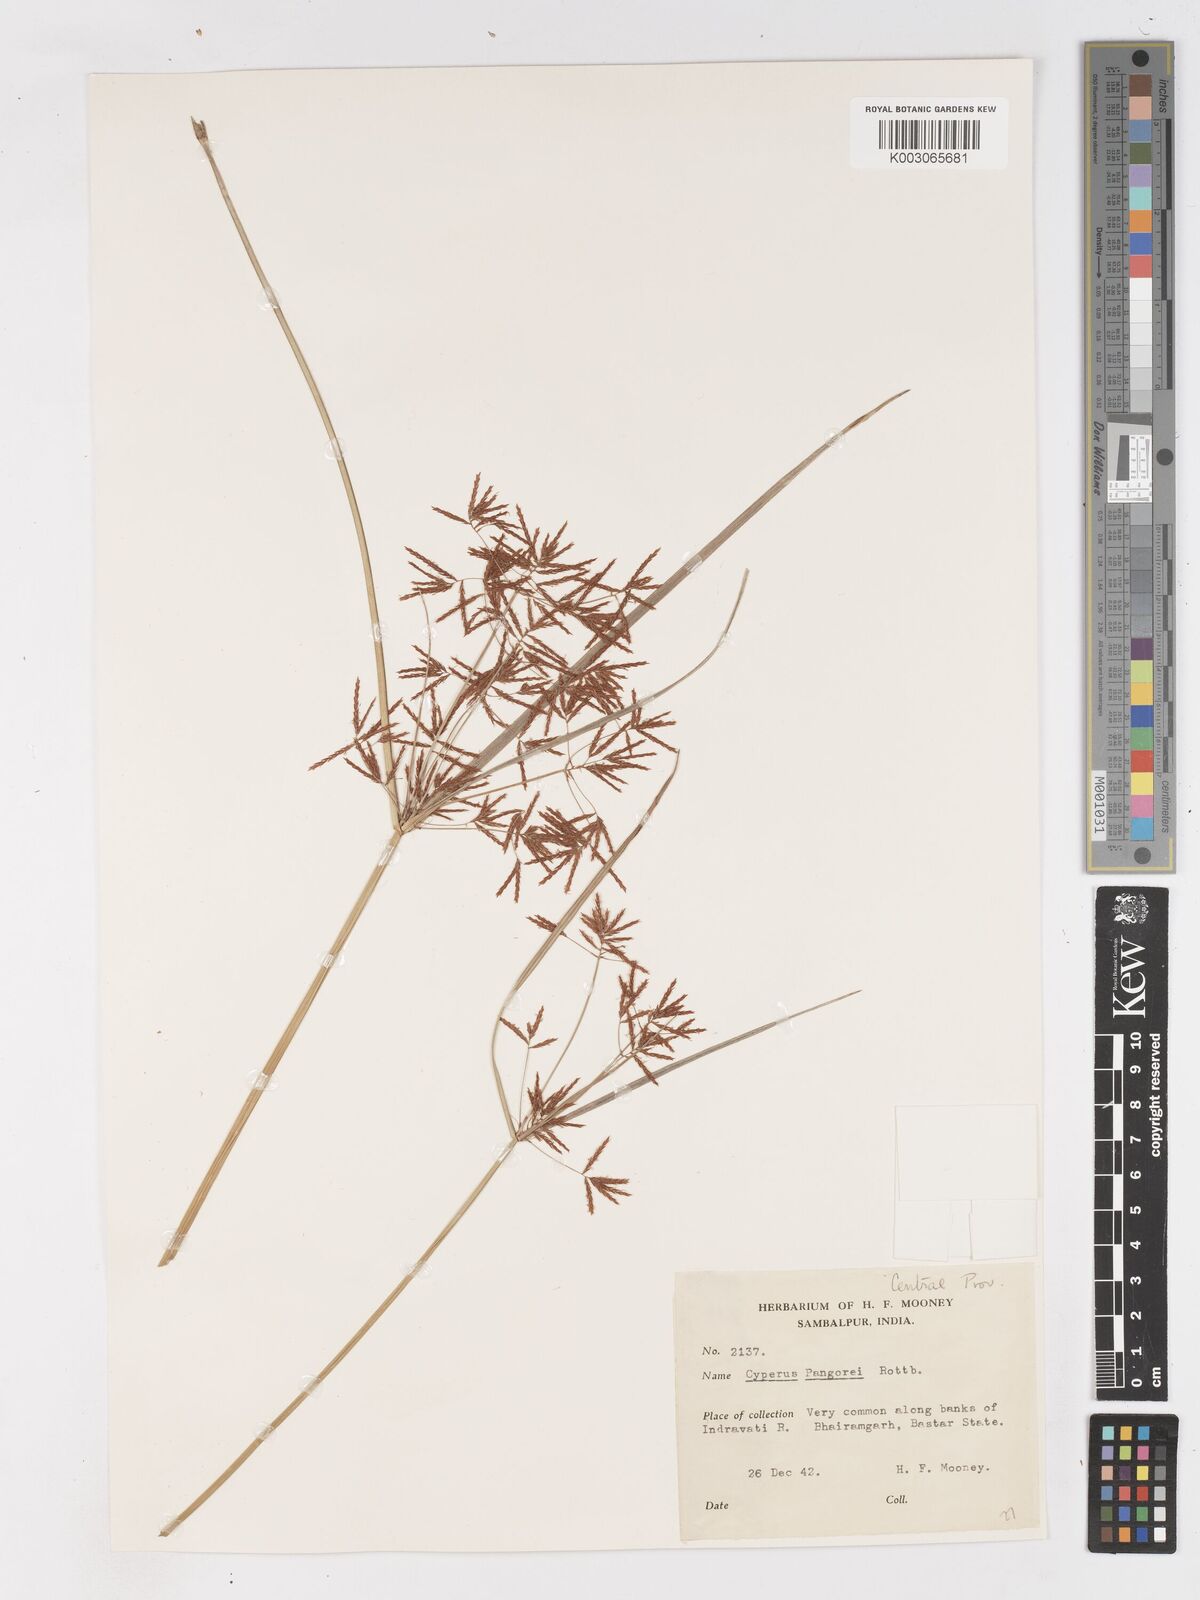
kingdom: Plantae
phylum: Tracheophyta
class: Liliopsida
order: Poales
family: Cyperaceae
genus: Cyperus
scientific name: Cyperus pangorei
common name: Mat sedge
